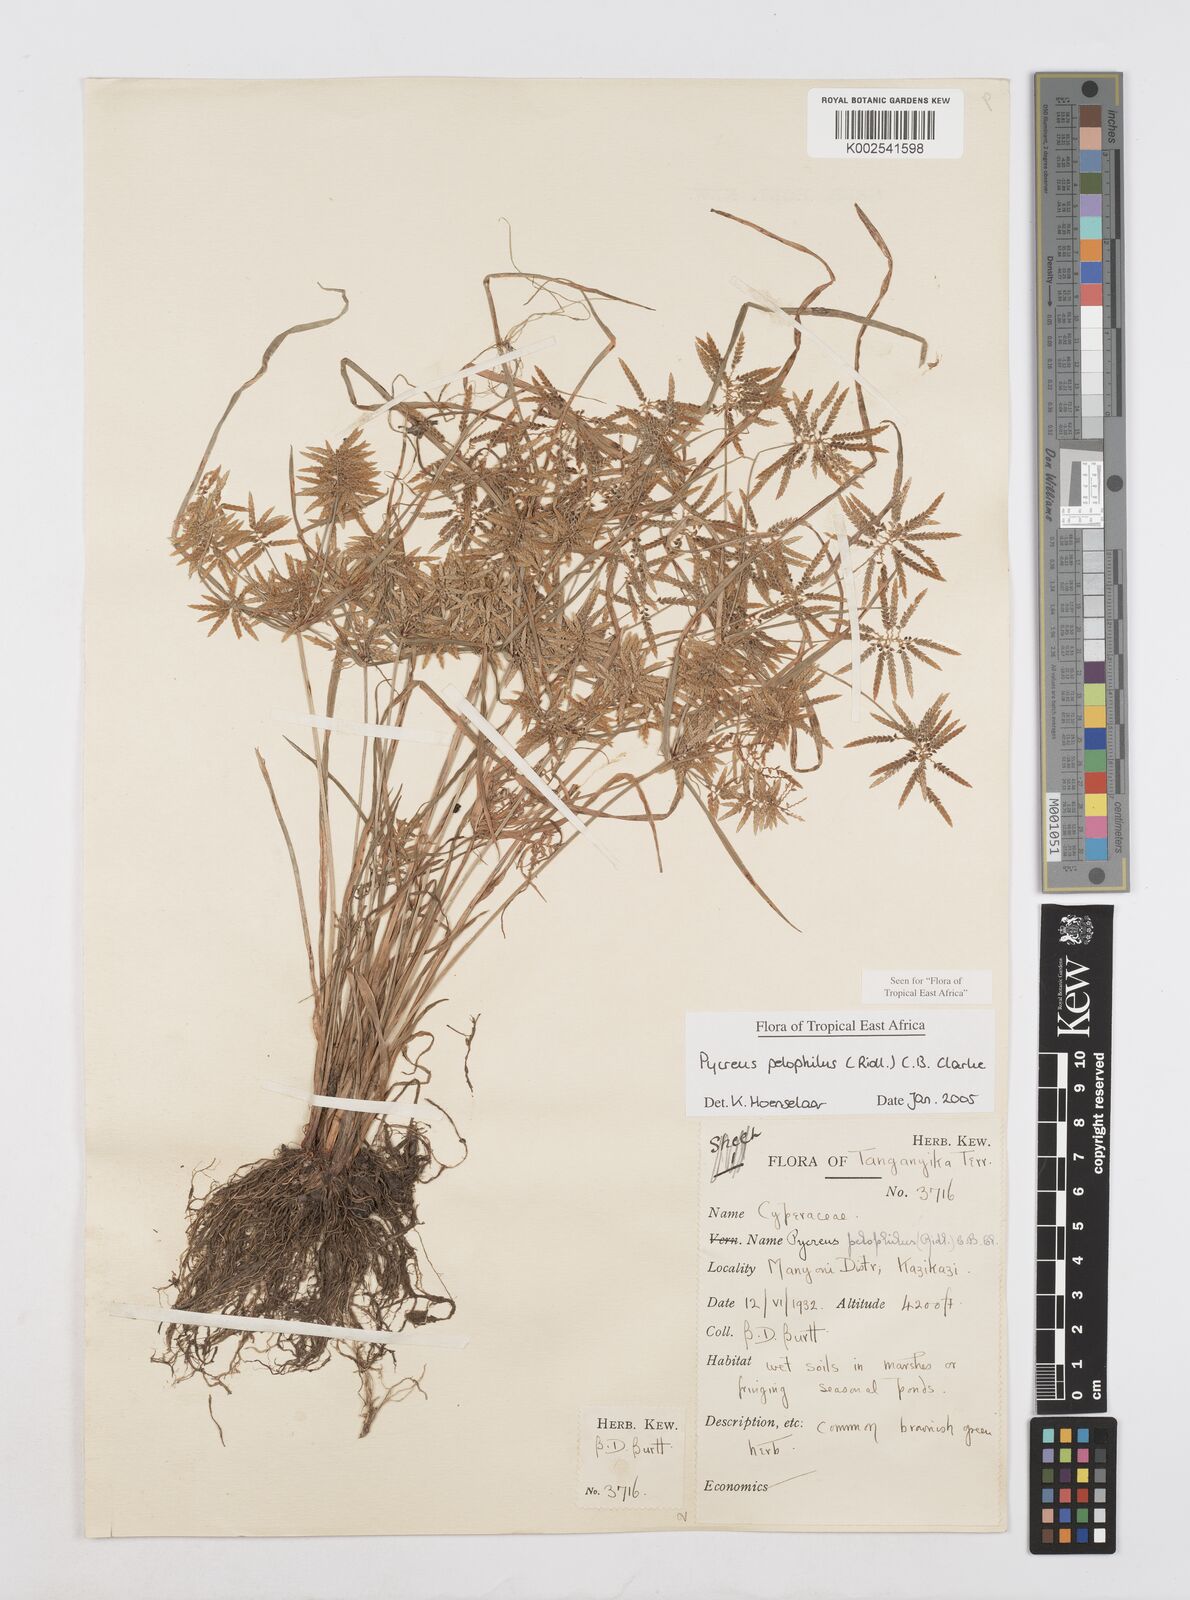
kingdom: Plantae
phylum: Tracheophyta
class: Liliopsida
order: Poales
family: Cyperaceae
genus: Cyperus
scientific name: Cyperus pelophilus
